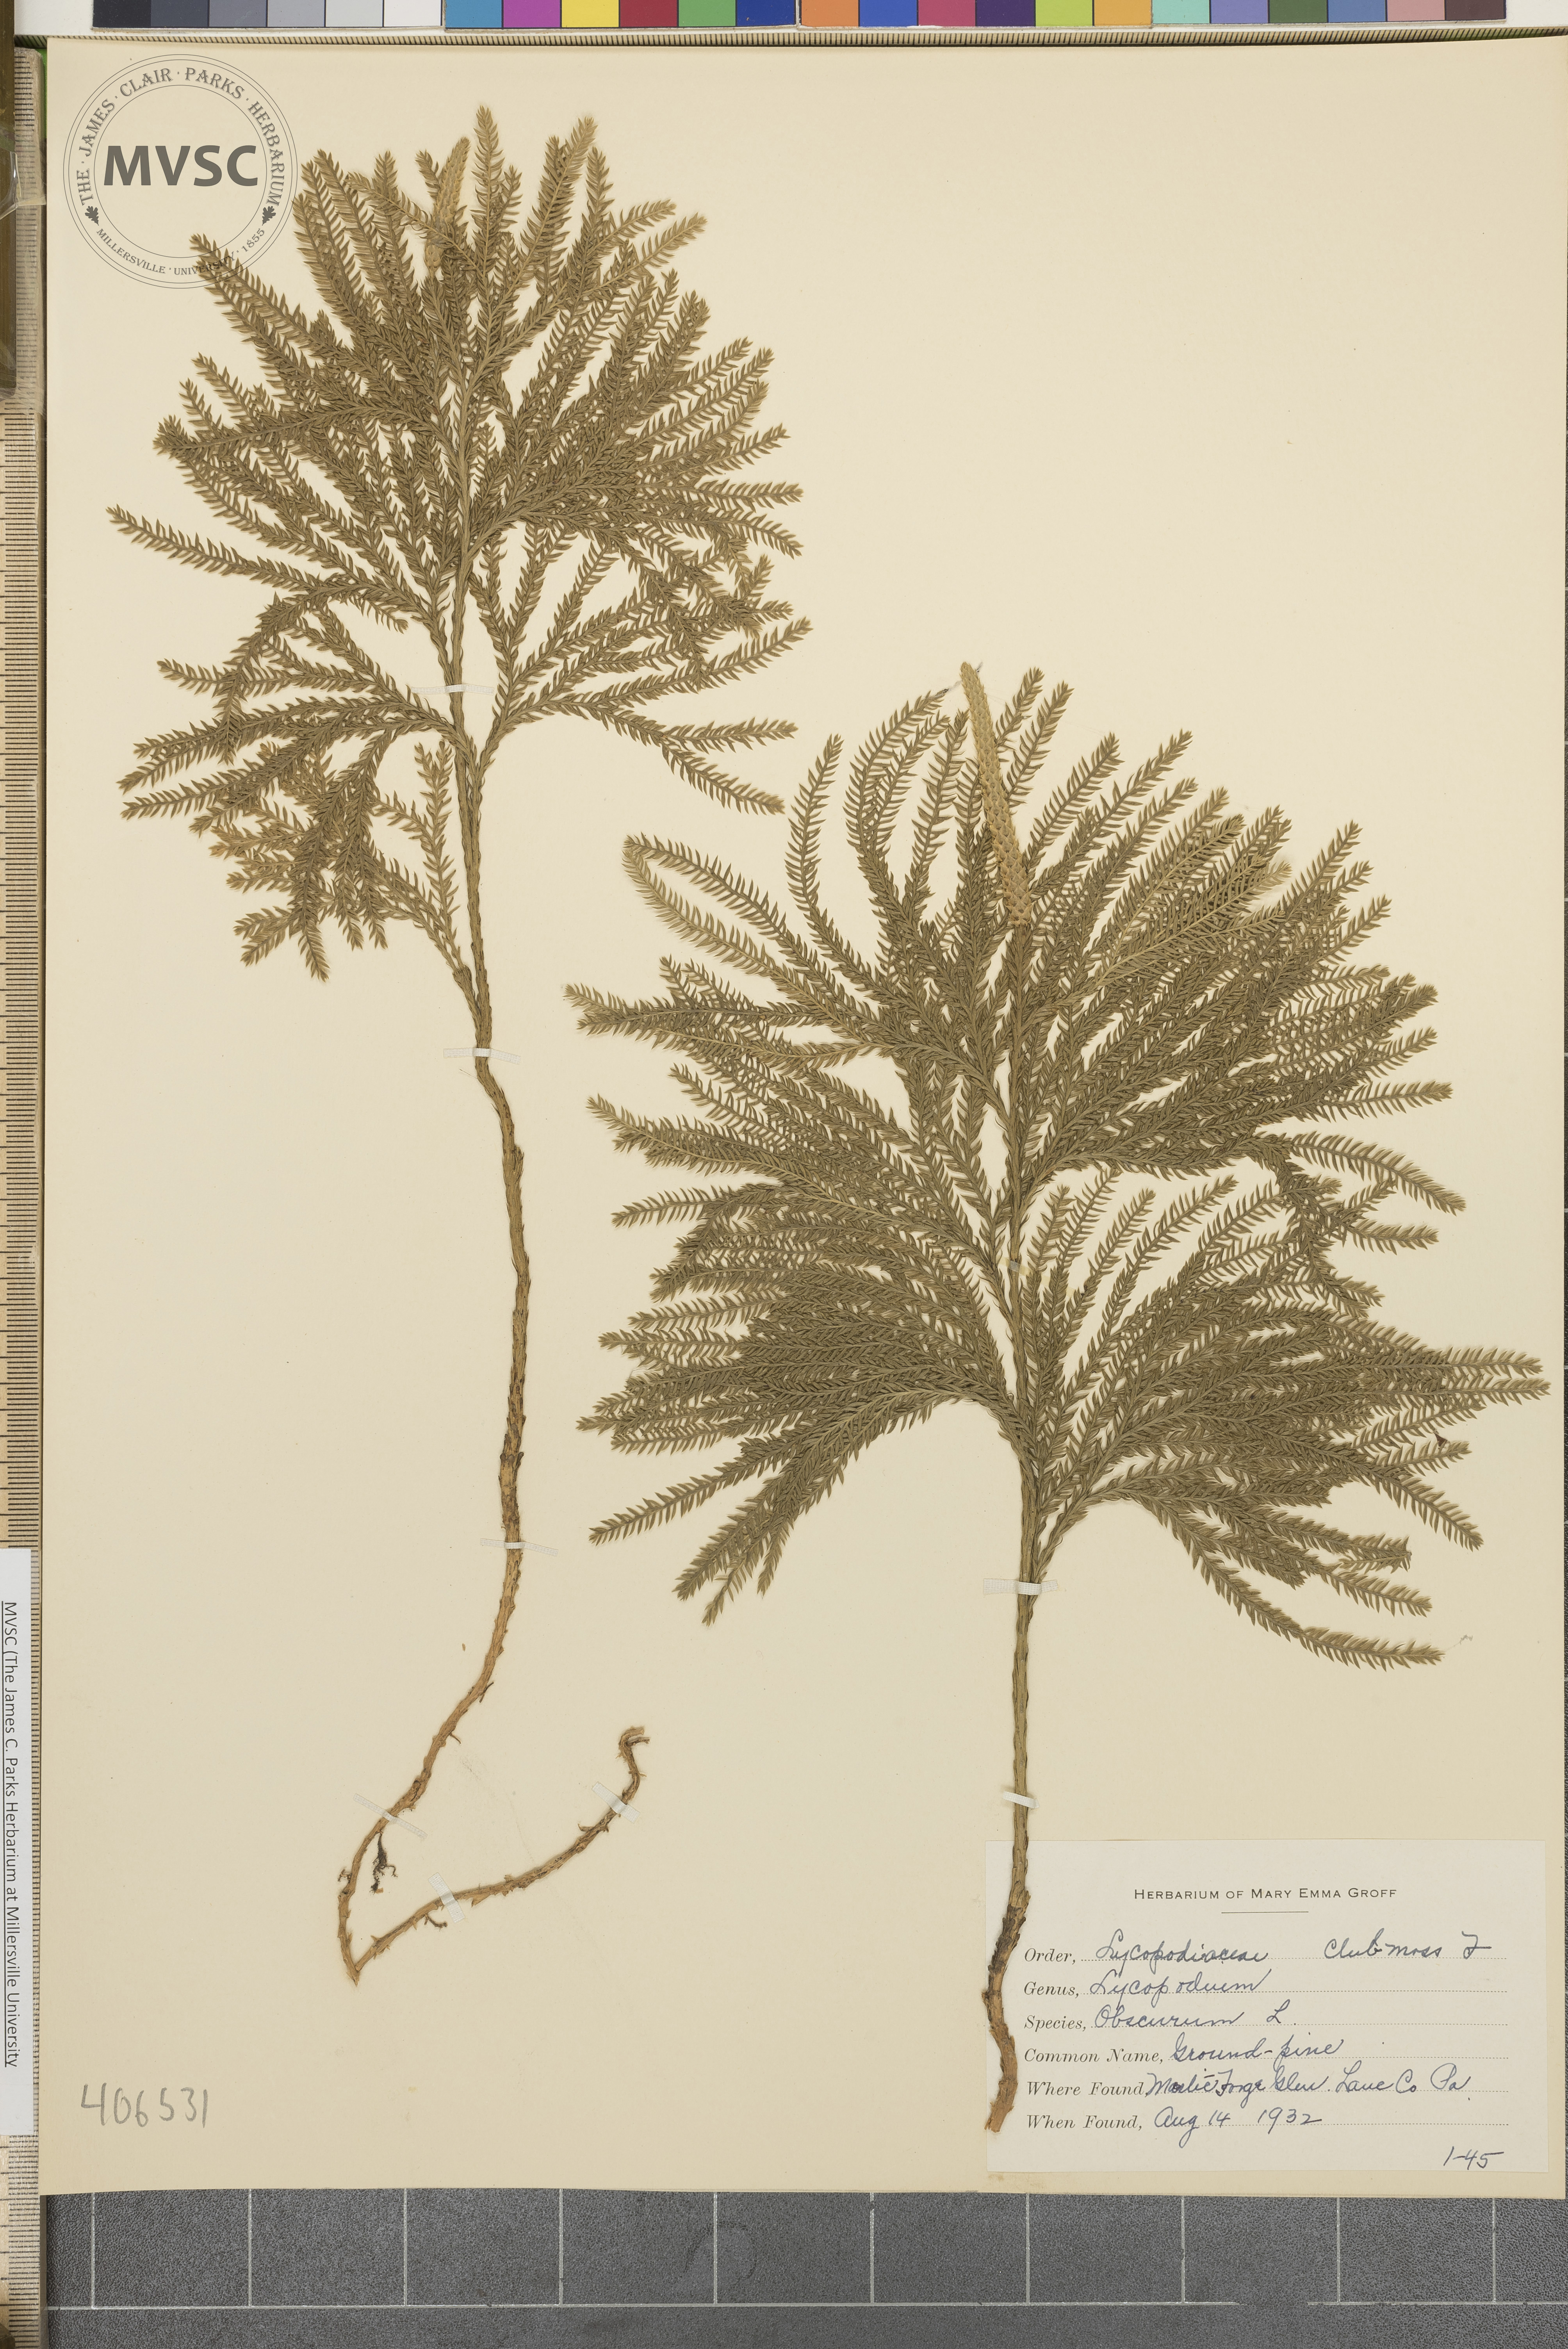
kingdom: Plantae
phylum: Tracheophyta
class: Lycopodiopsida
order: Lycopodiales
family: Lycopodiaceae
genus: Dendrolycopodium
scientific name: Dendrolycopodium obscurum
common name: Common ground-pine
